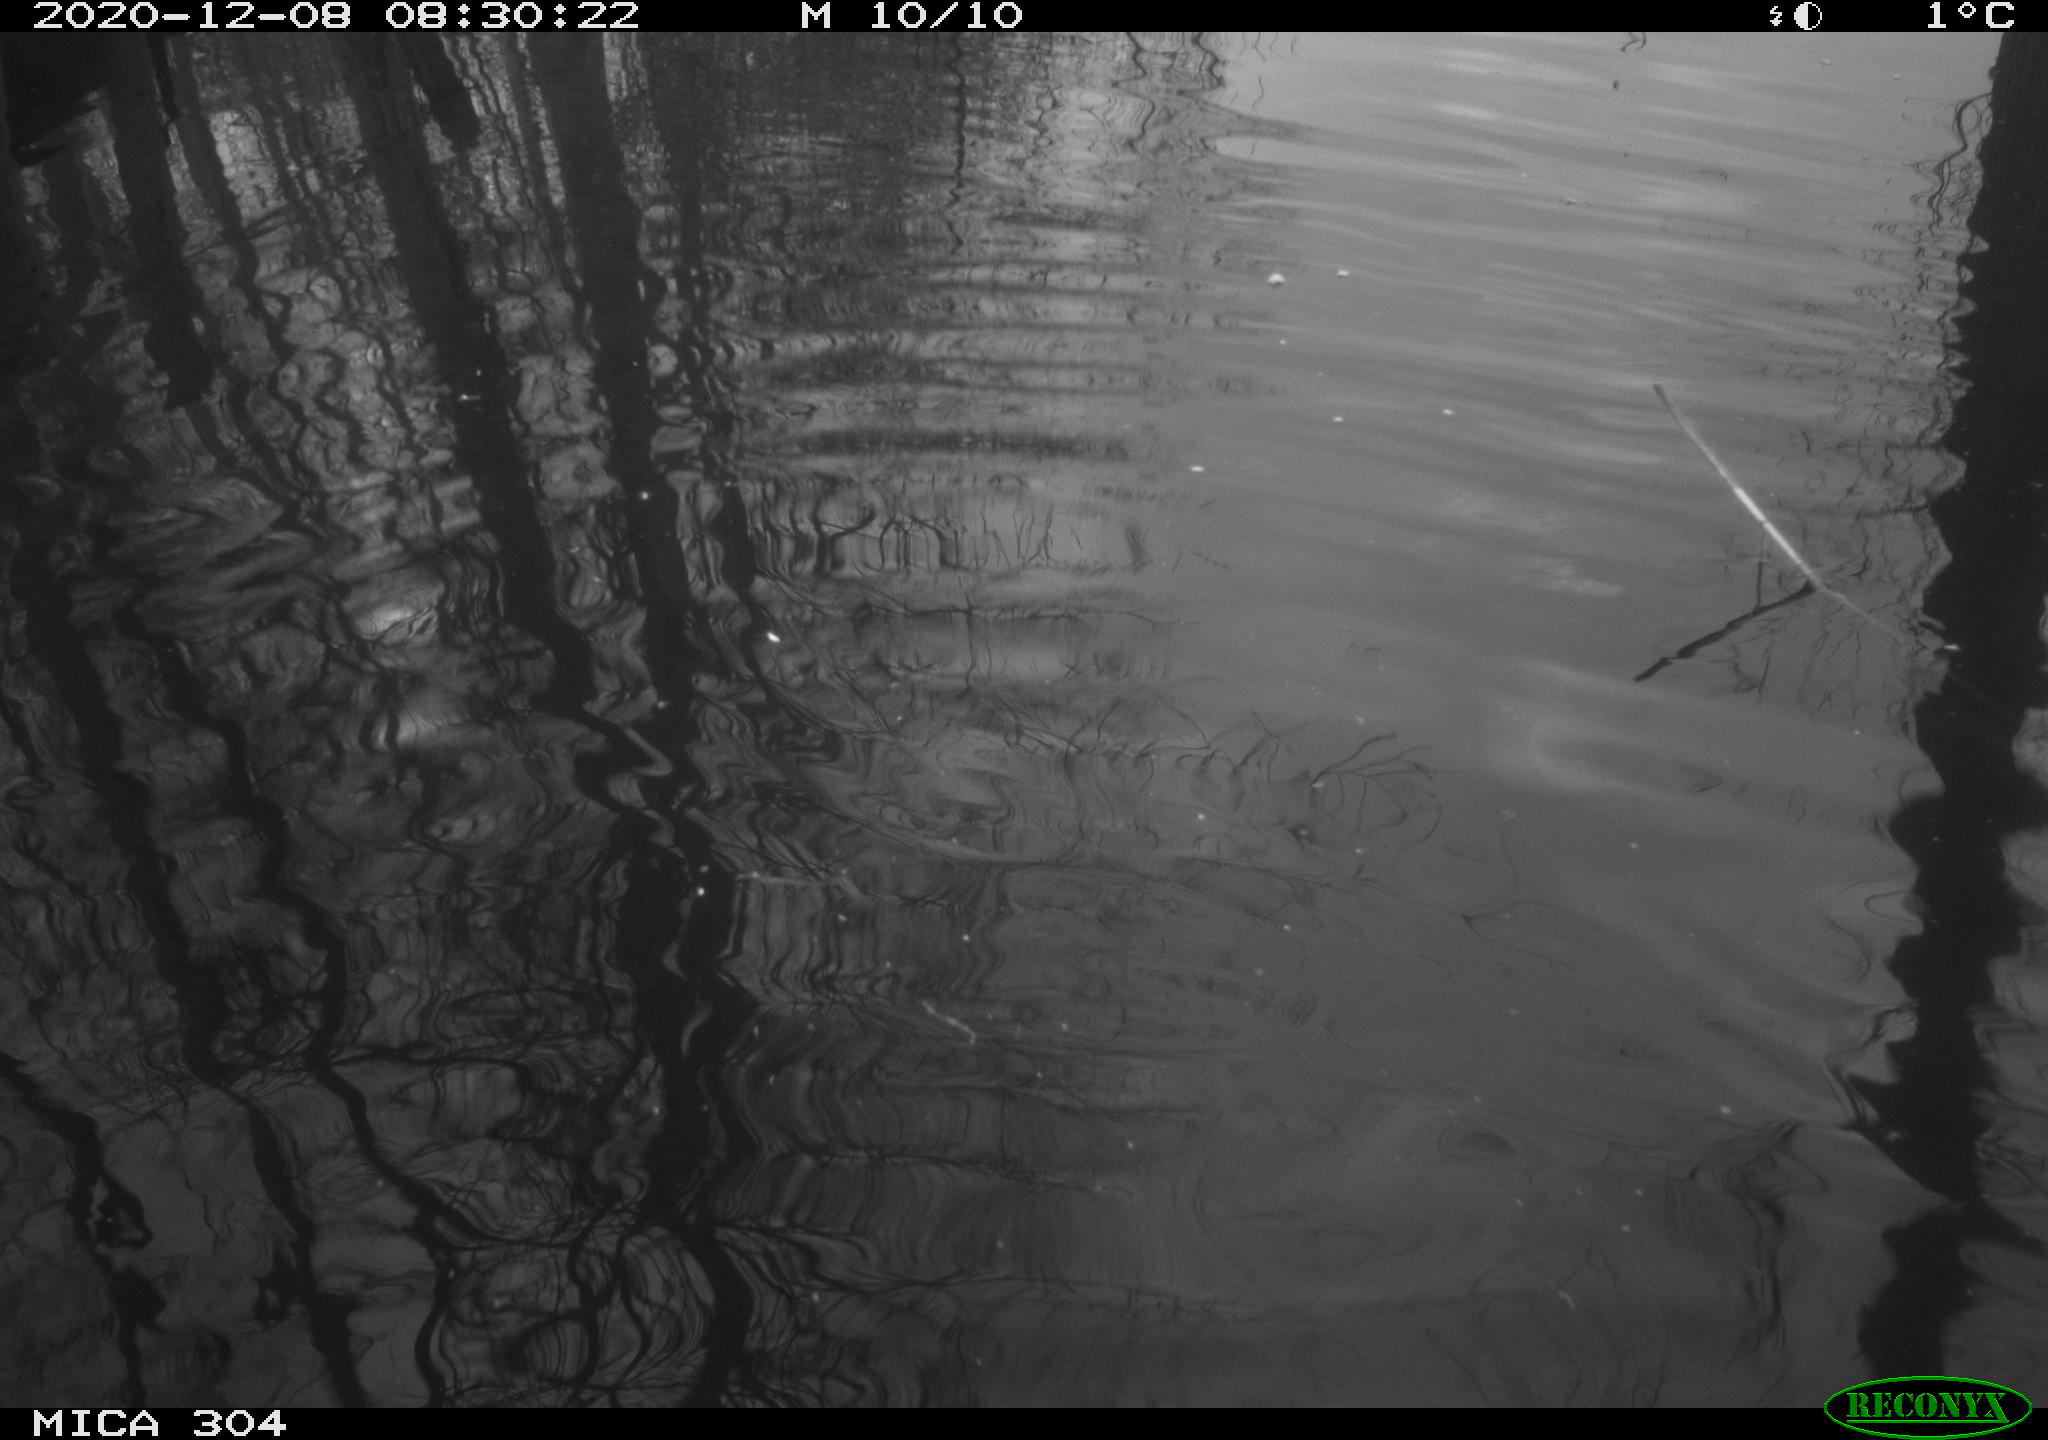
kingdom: Animalia
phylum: Chordata
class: Aves
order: Gruiformes
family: Rallidae
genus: Gallinula
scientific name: Gallinula chloropus
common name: Common moorhen
